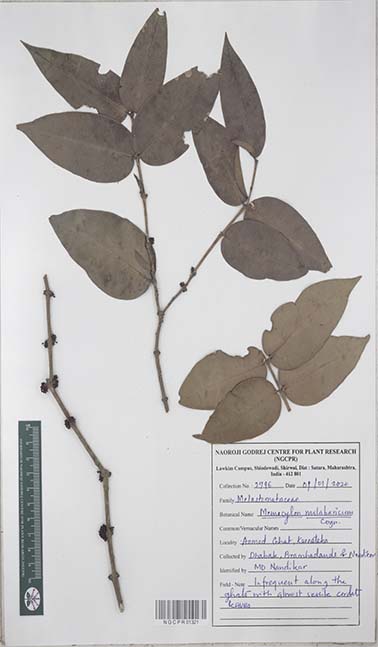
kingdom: Plantae
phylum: Tracheophyta
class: Magnoliopsida
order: Myrtales
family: Melastomataceae
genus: Memecylon
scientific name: Memecylon sessile
